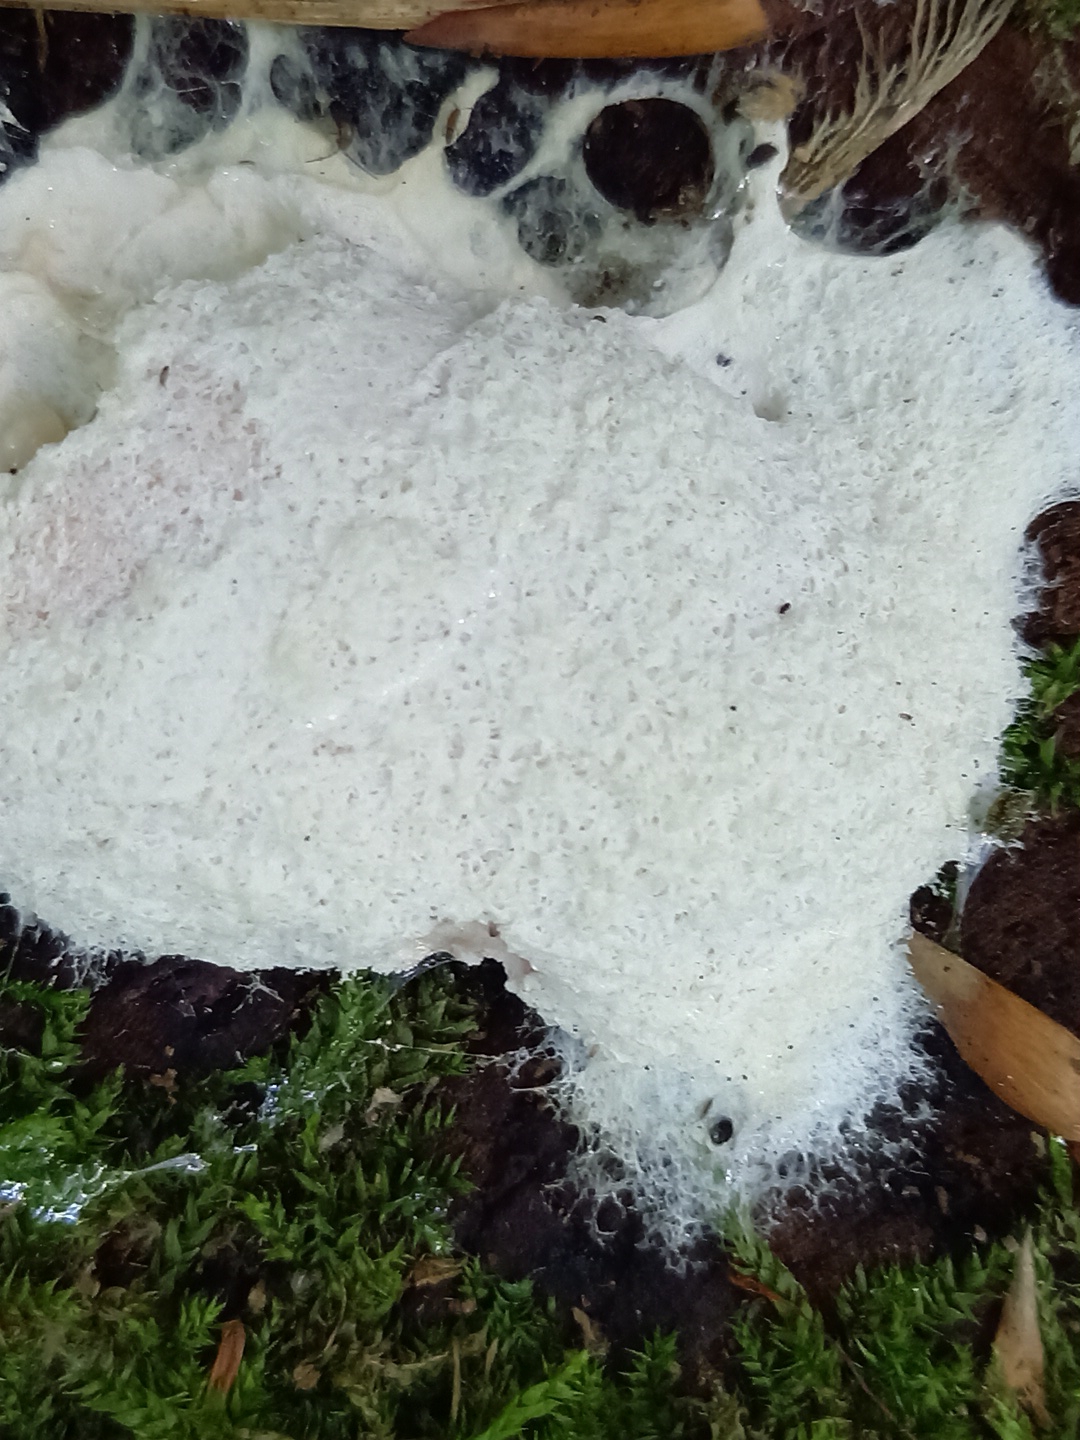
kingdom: Protozoa
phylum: Mycetozoa
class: Myxomycetes
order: Physarales
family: Physaraceae
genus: Fuligo
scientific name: Fuligo septica
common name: gul troldsmør
